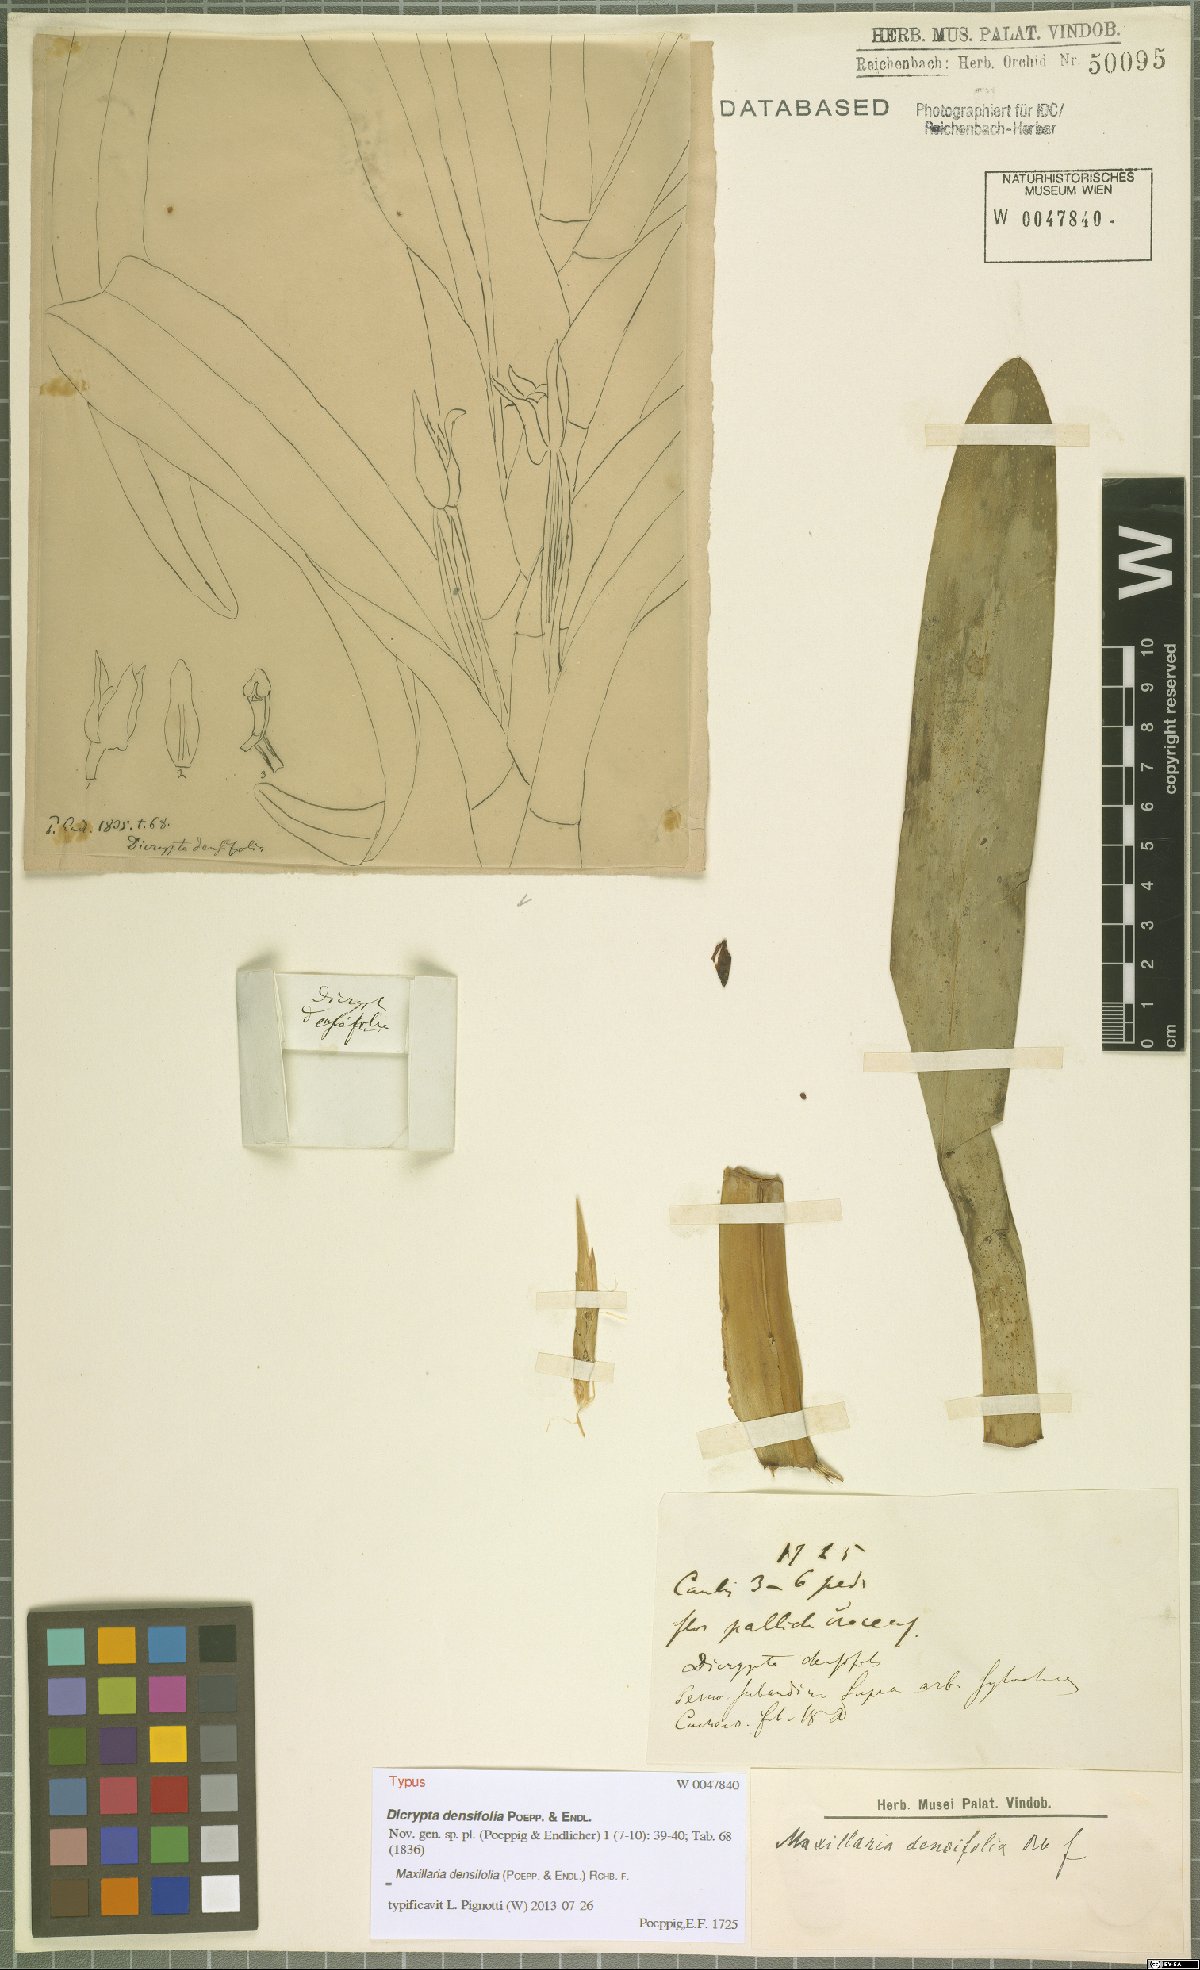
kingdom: Plantae
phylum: Tracheophyta
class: Liliopsida
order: Asparagales
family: Orchidaceae
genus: Maxillaria
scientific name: Maxillaria densifolia
